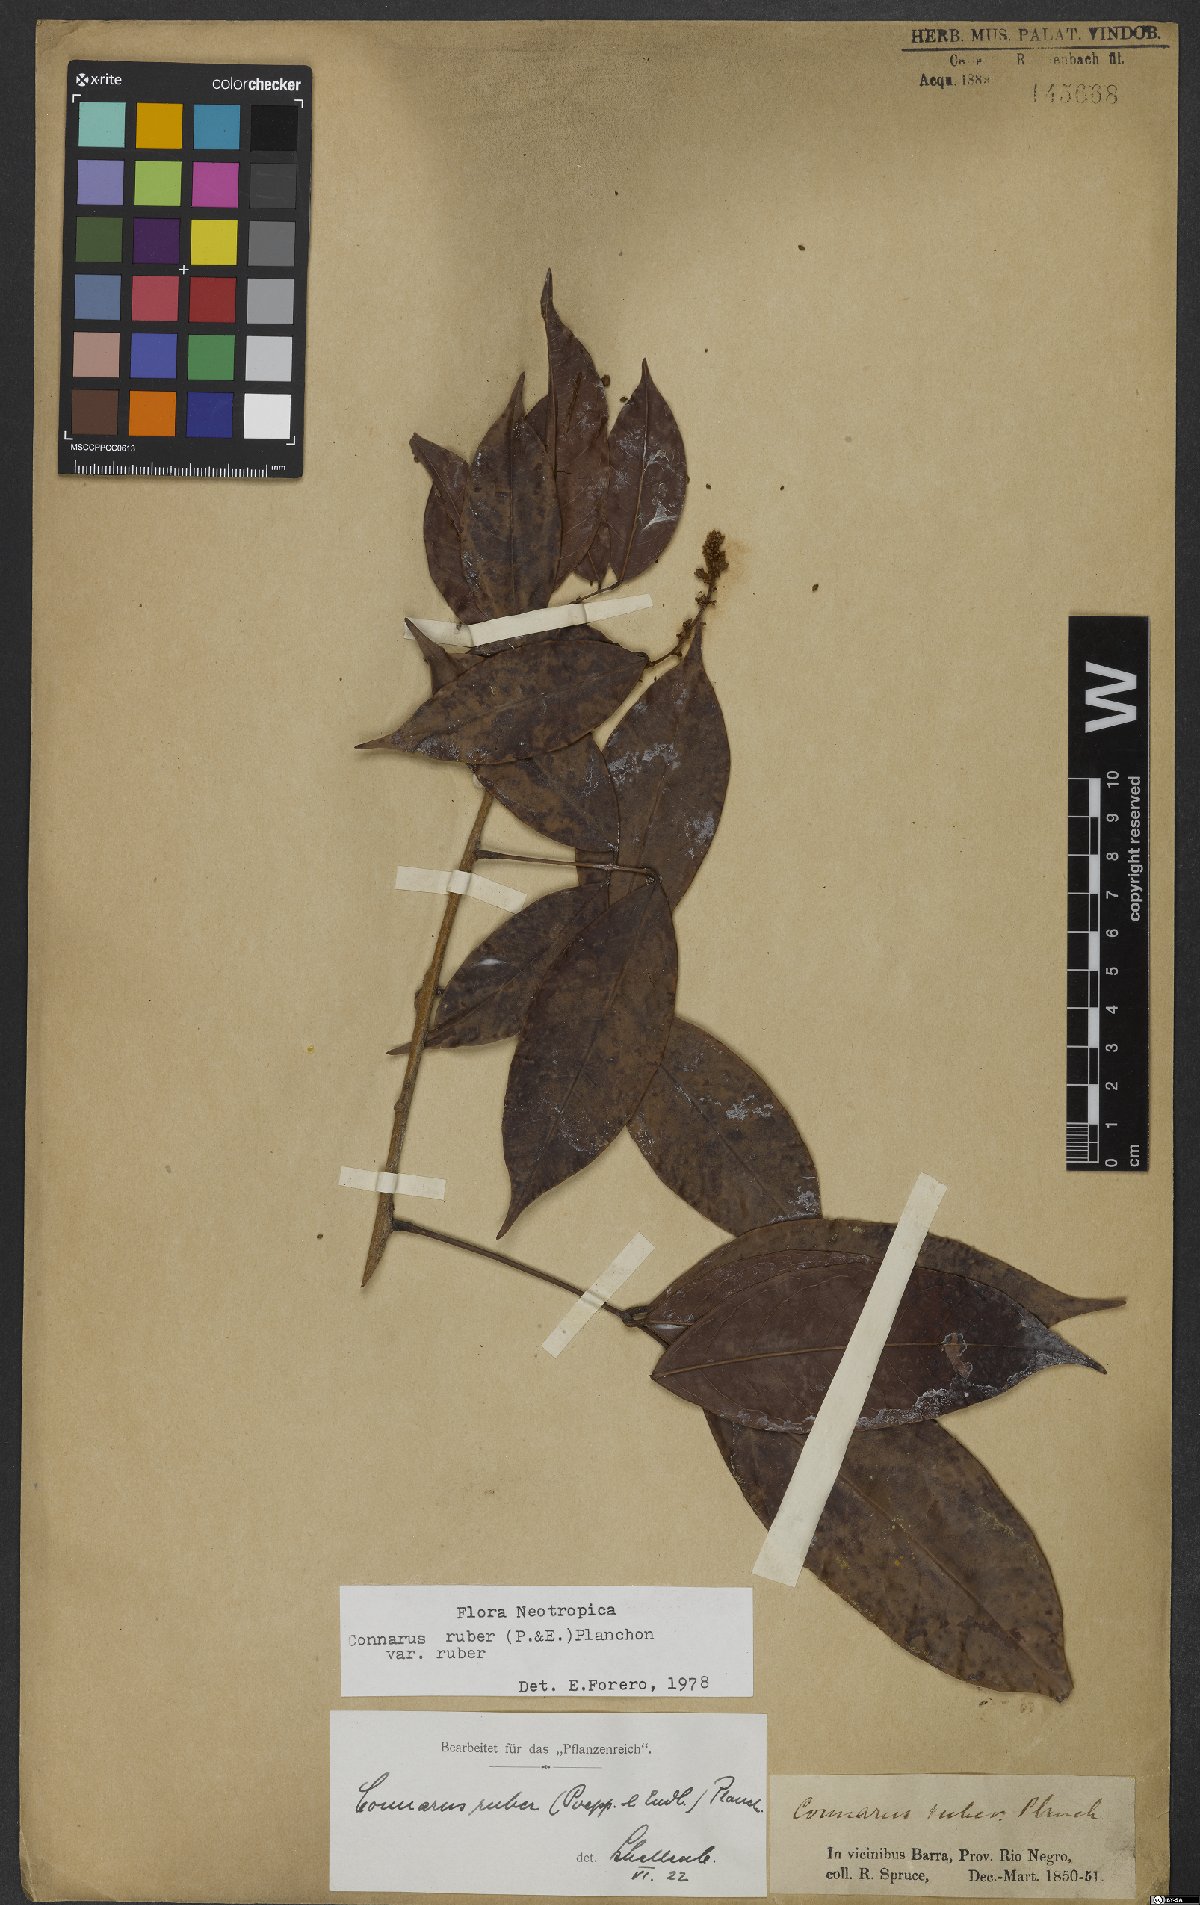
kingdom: Plantae
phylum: Tracheophyta
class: Magnoliopsida
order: Oxalidales
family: Connaraceae
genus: Connarus
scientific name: Connarus ruber
